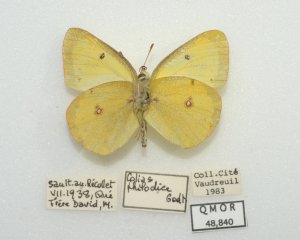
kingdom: Animalia
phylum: Arthropoda
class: Insecta
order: Lepidoptera
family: Pieridae
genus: Colias
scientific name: Colias philodice
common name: Clouded Sulphur
